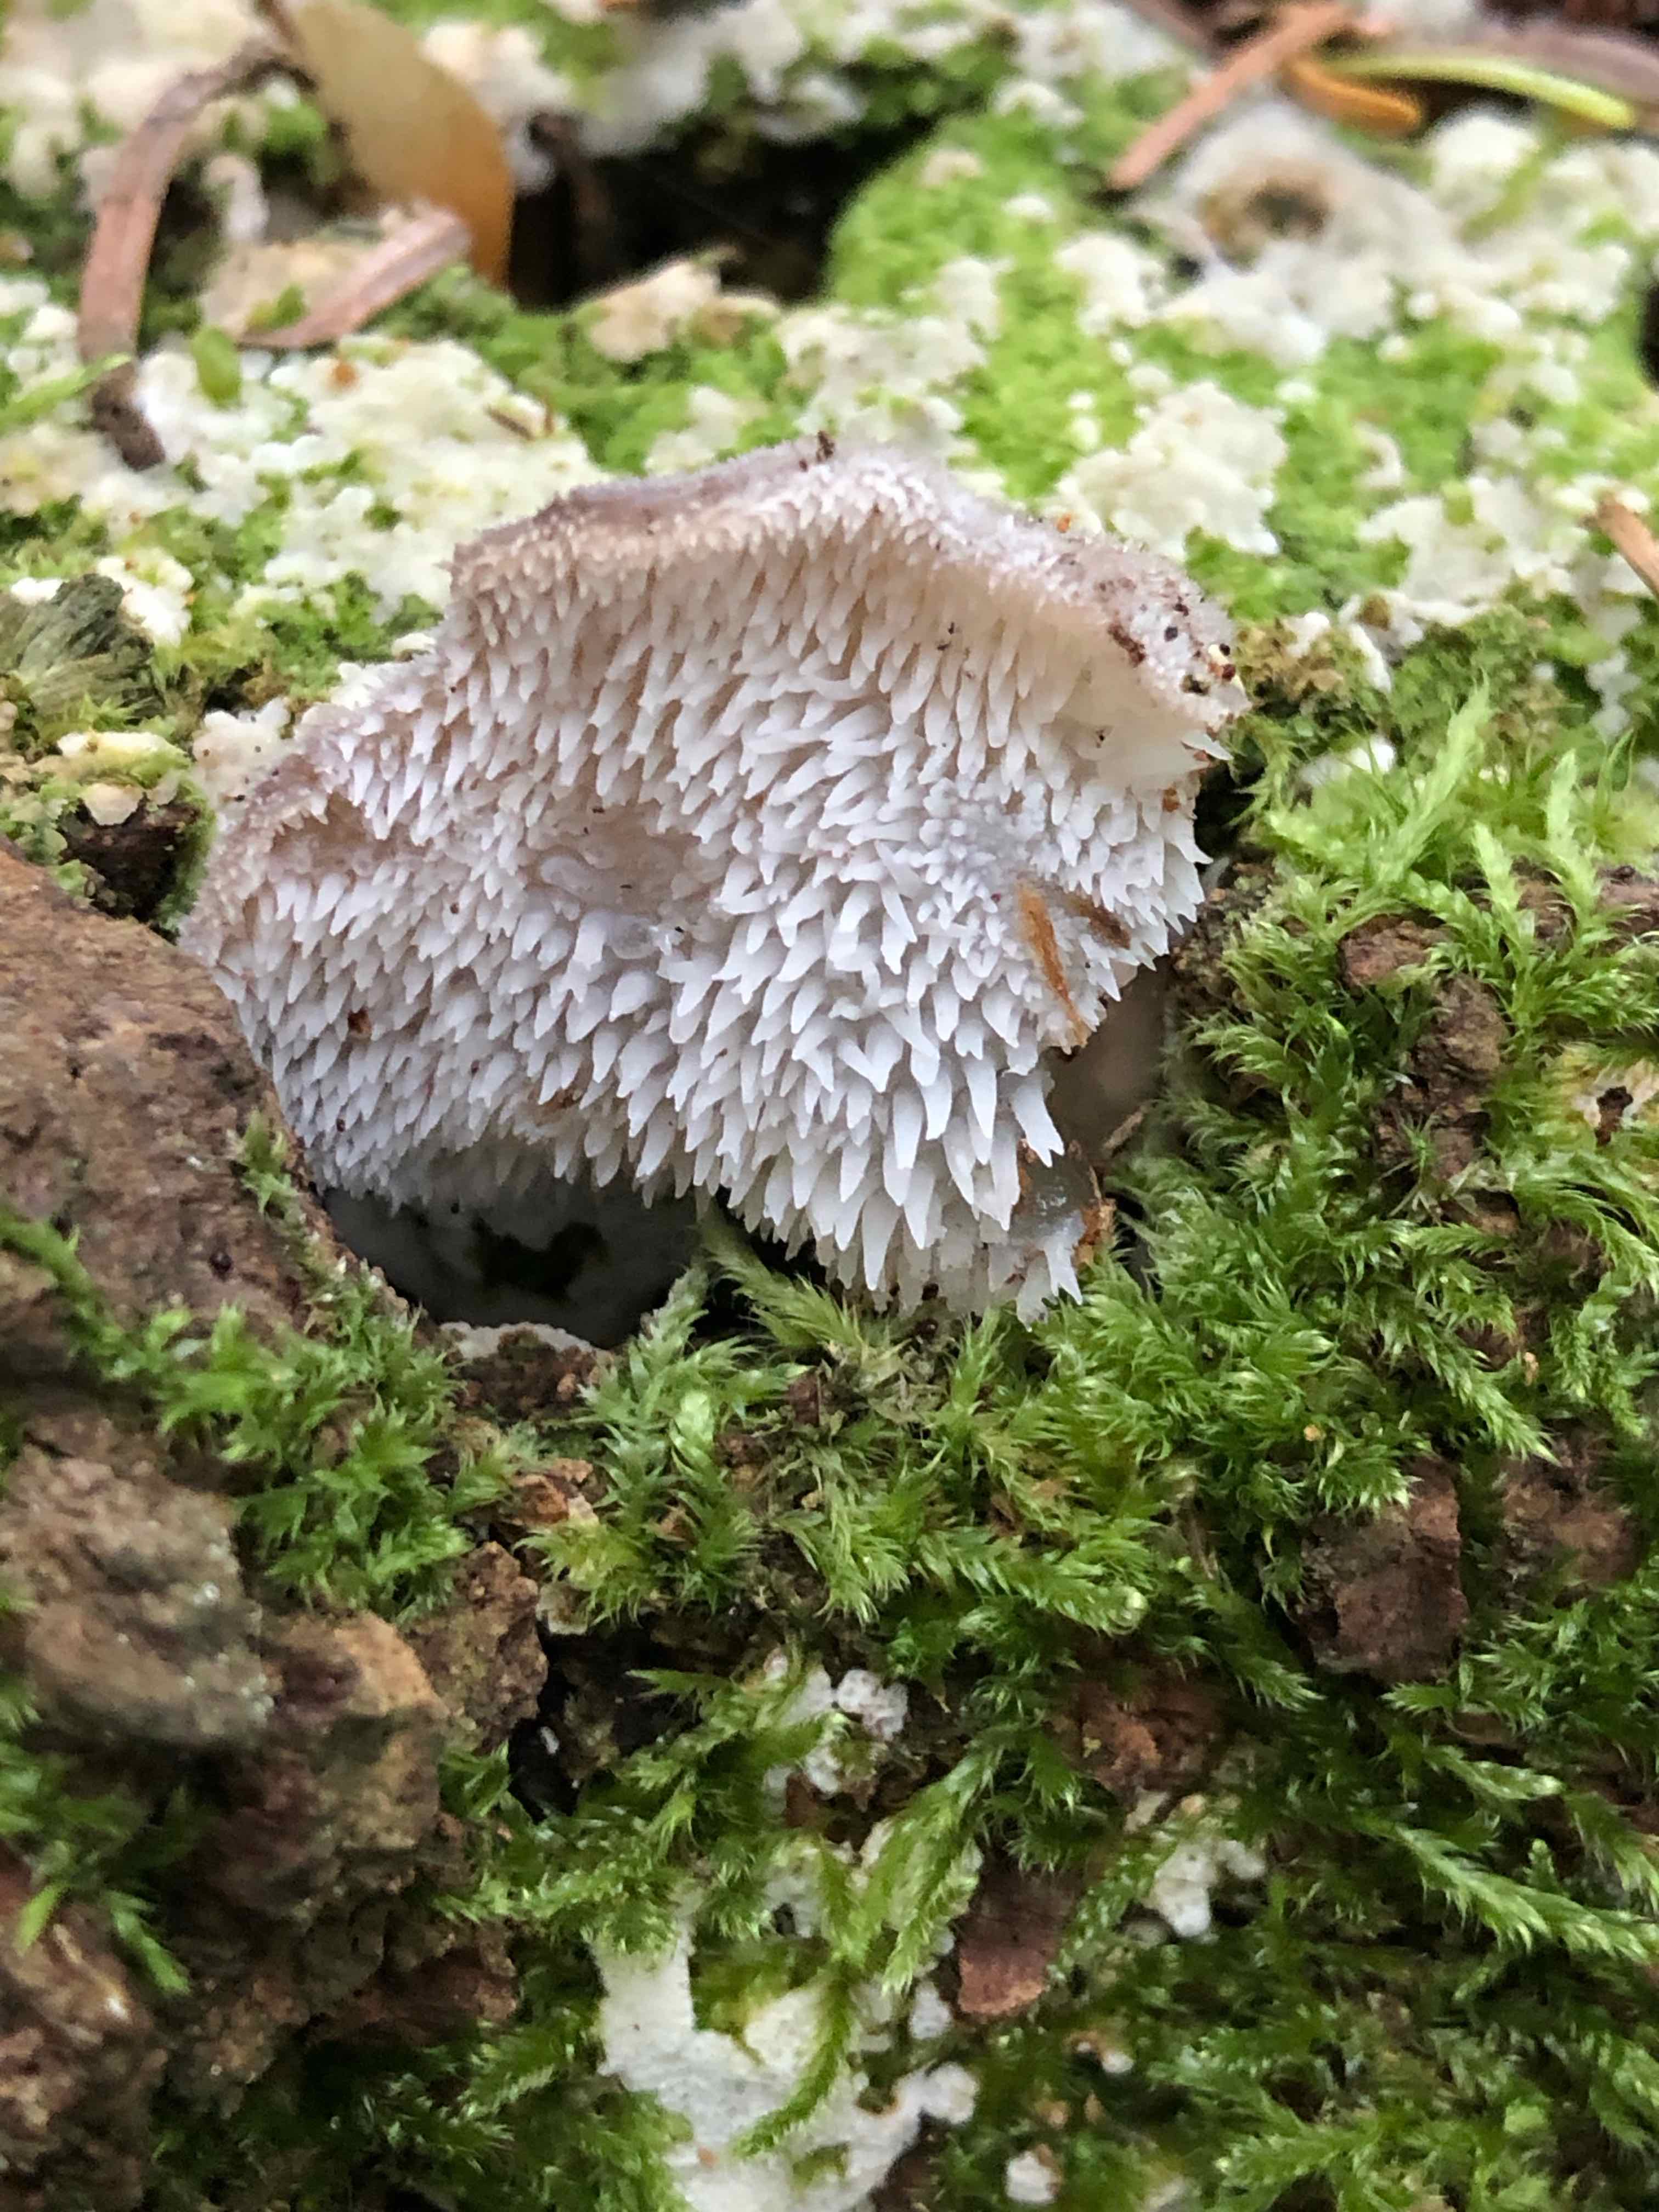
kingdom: Fungi
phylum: Basidiomycota
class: Agaricomycetes
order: Auriculariales
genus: Pseudohydnum
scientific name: Pseudohydnum gelatinosum
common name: bævretand
